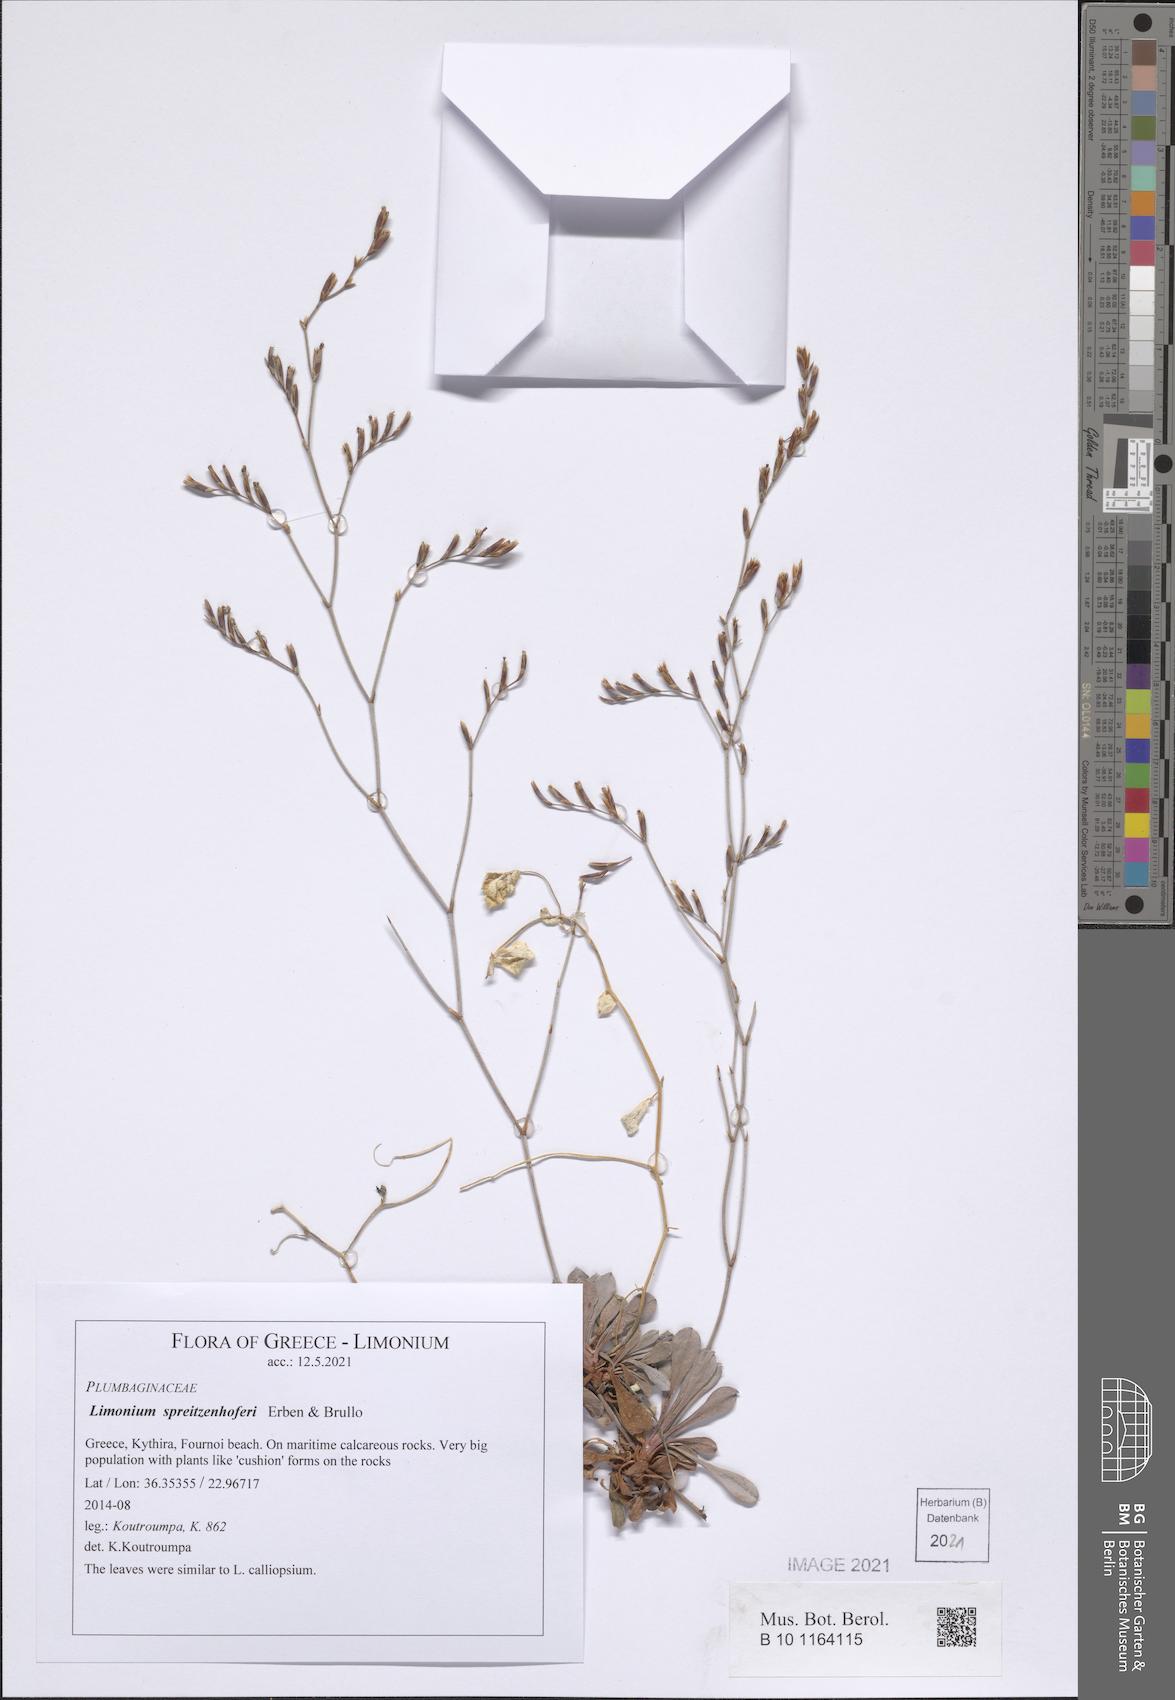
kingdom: Plantae
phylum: Tracheophyta
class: Magnoliopsida
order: Caryophyllales
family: Plumbaginaceae
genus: Limonium
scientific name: Limonium spreitzenhoferi
